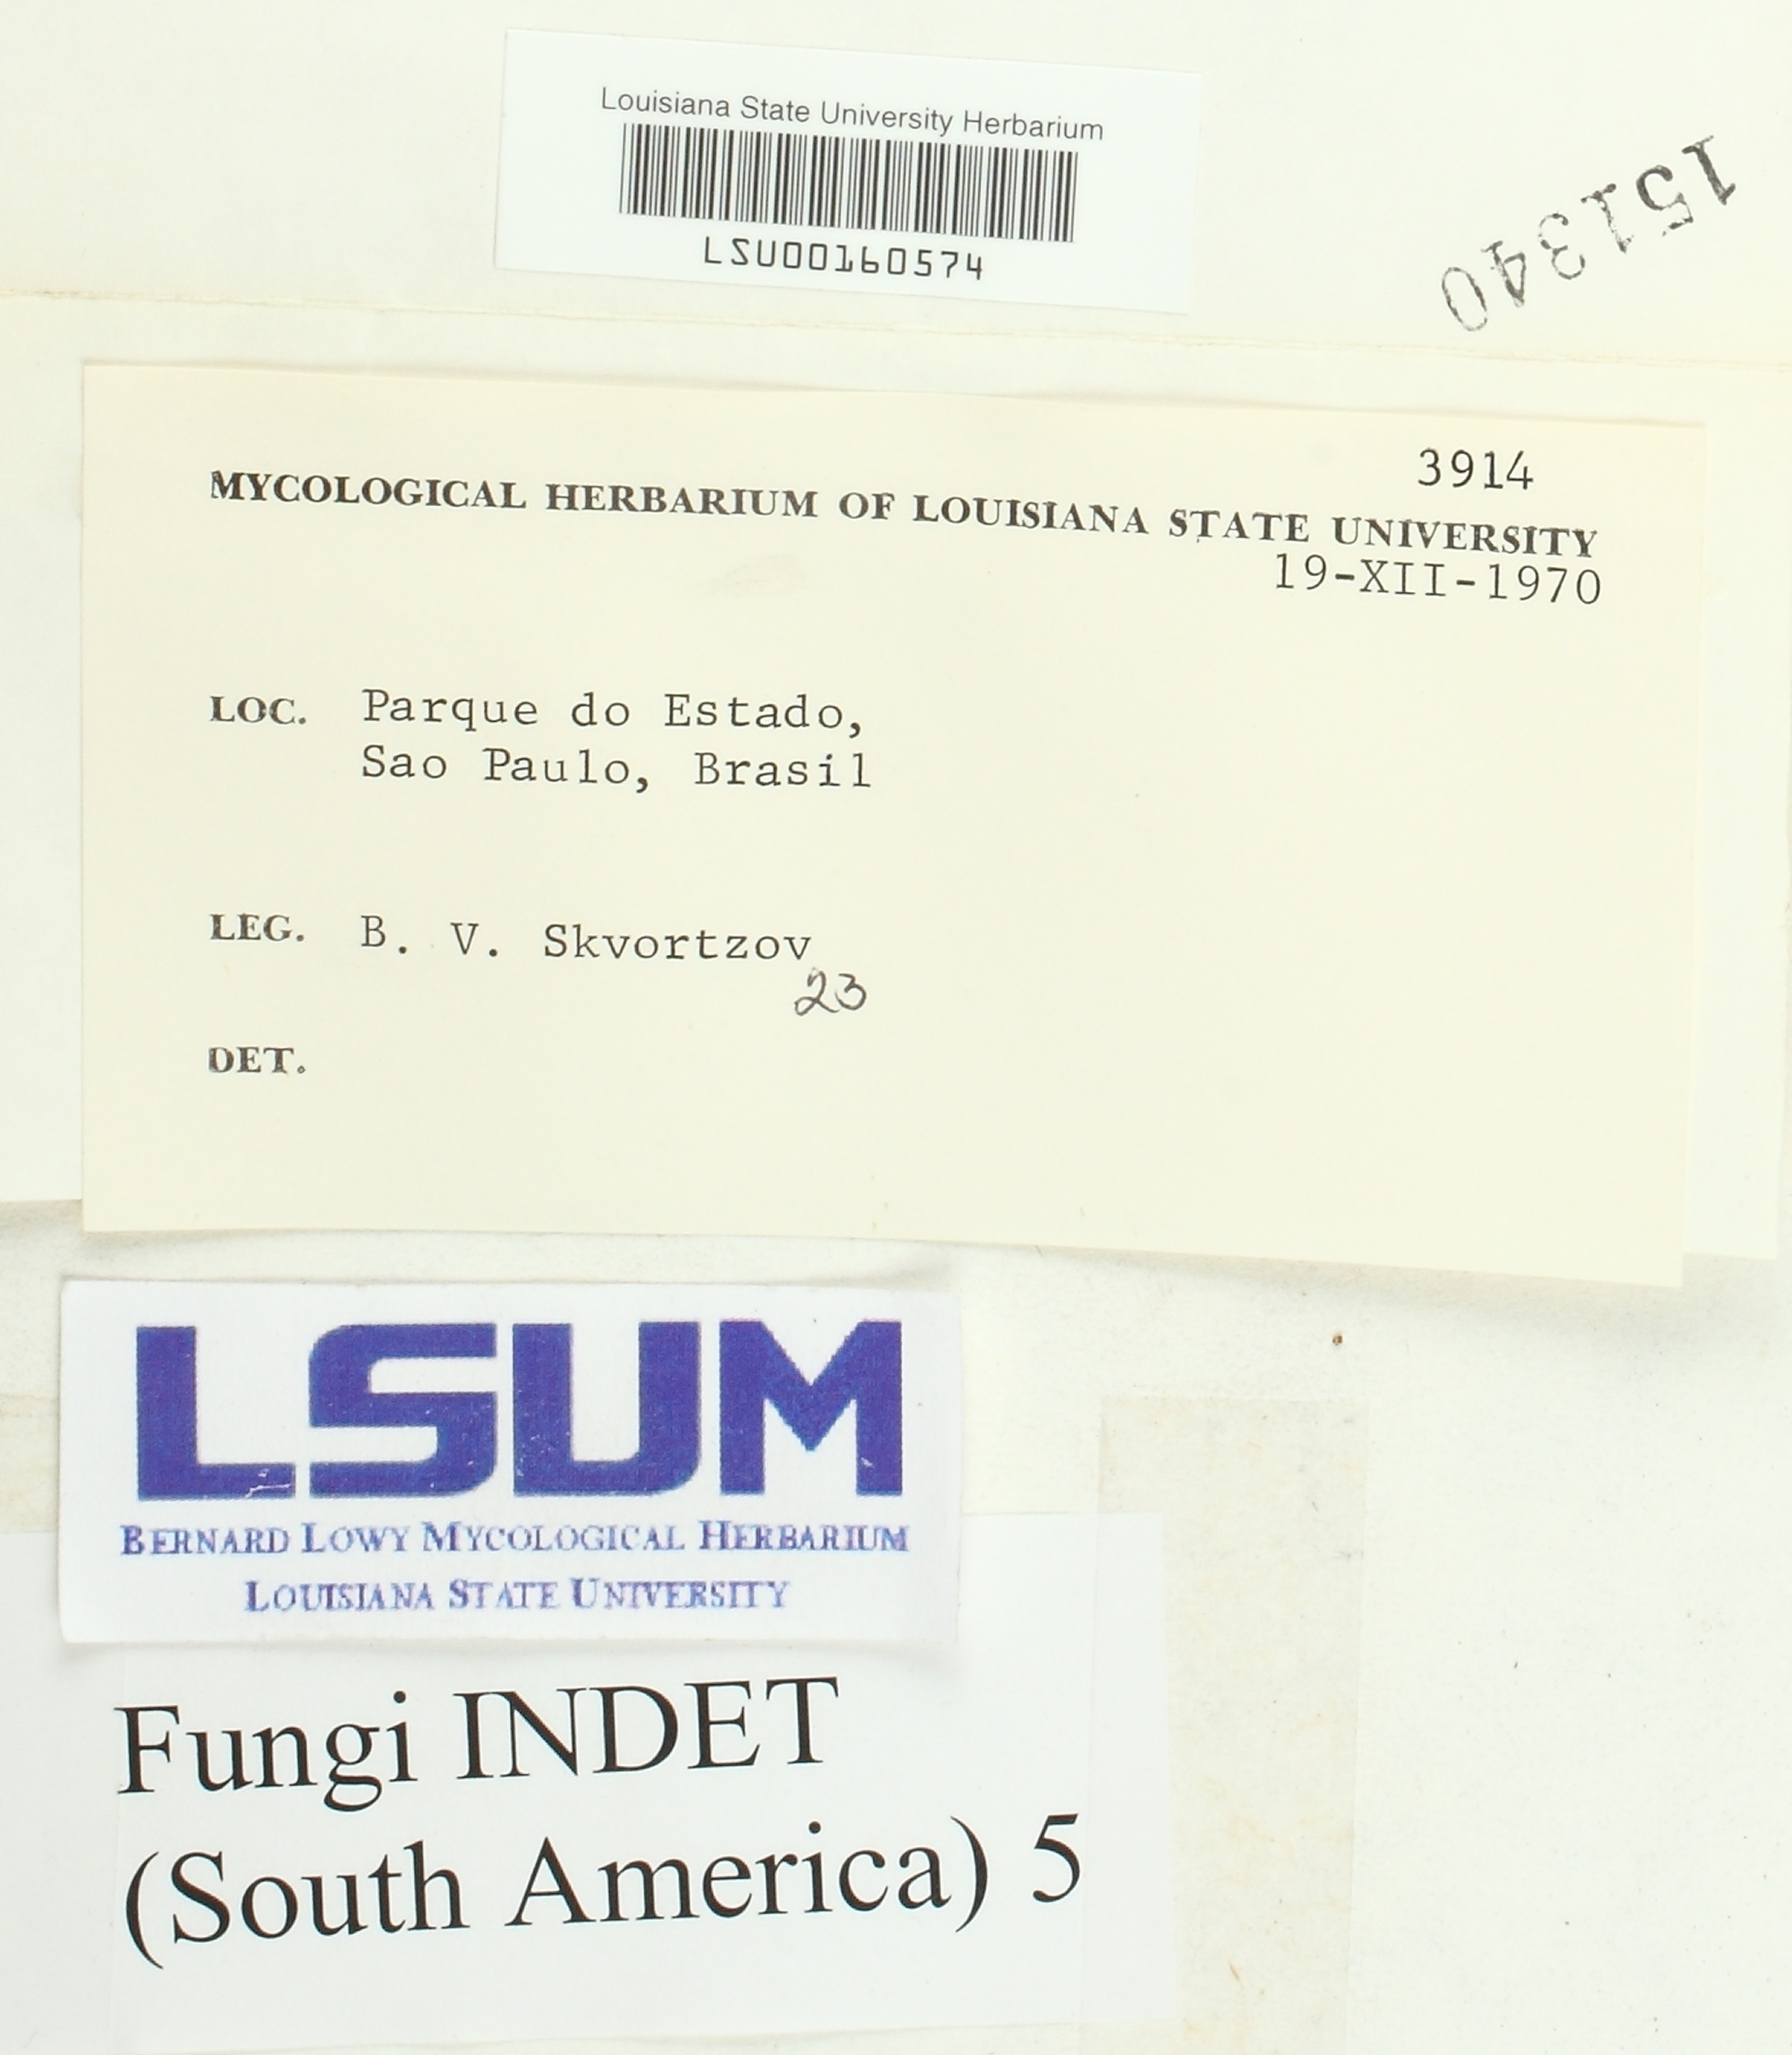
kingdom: Fungi
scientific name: Fungi
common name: Fungi
